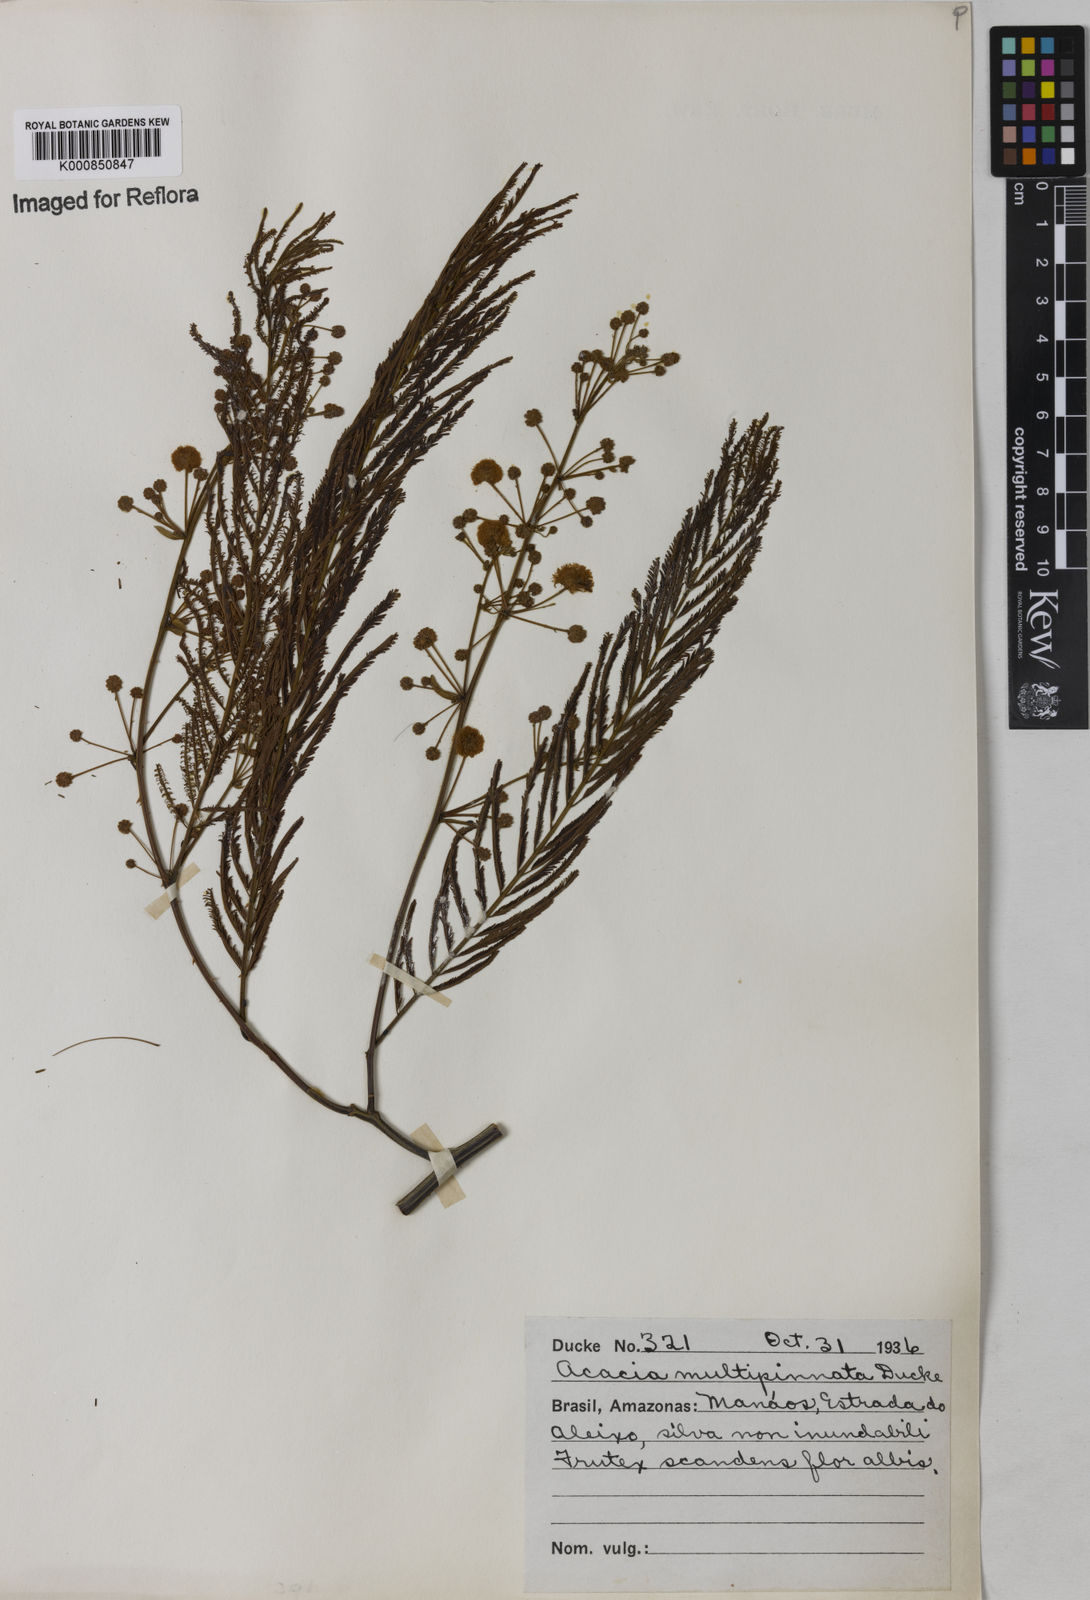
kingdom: Plantae
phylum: Tracheophyta
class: Magnoliopsida
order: Fabales
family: Fabaceae
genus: Senegalia
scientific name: Senegalia paniculata
